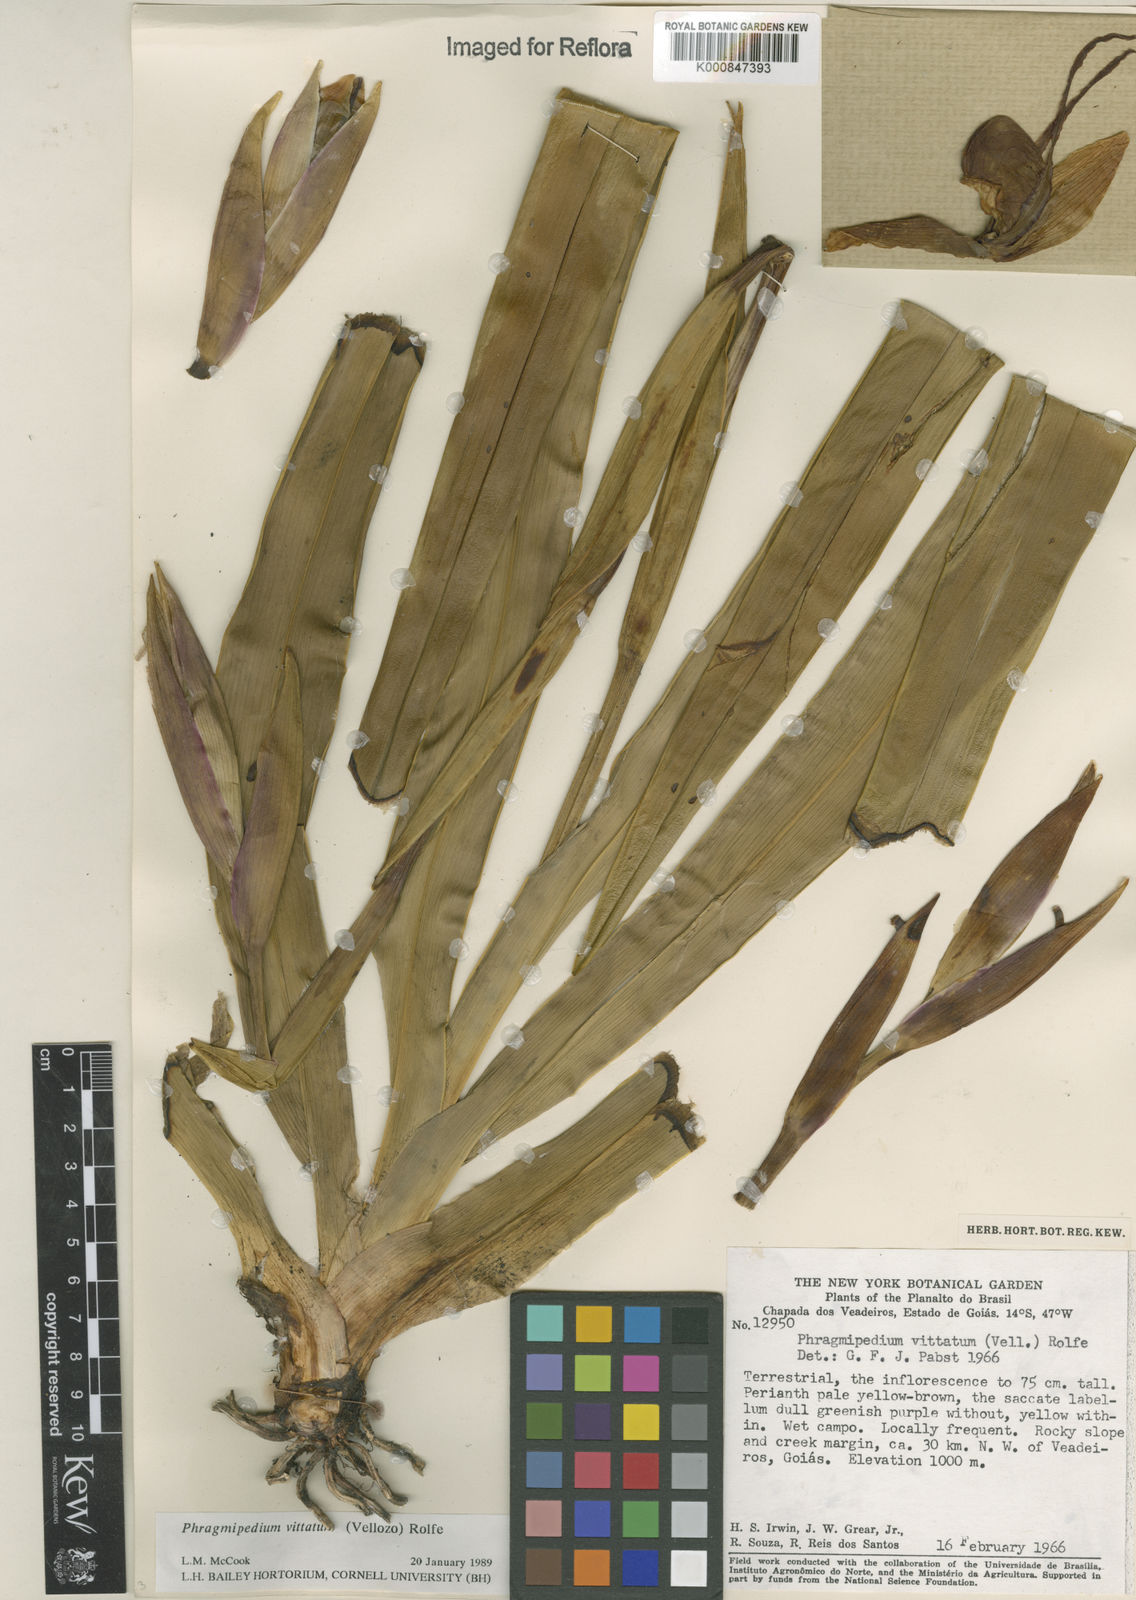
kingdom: Plantae
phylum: Tracheophyta
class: Liliopsida
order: Asparagales
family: Orchidaceae
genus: Phragmipedium
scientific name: Phragmipedium vittatum
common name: Striped phragmipedium
